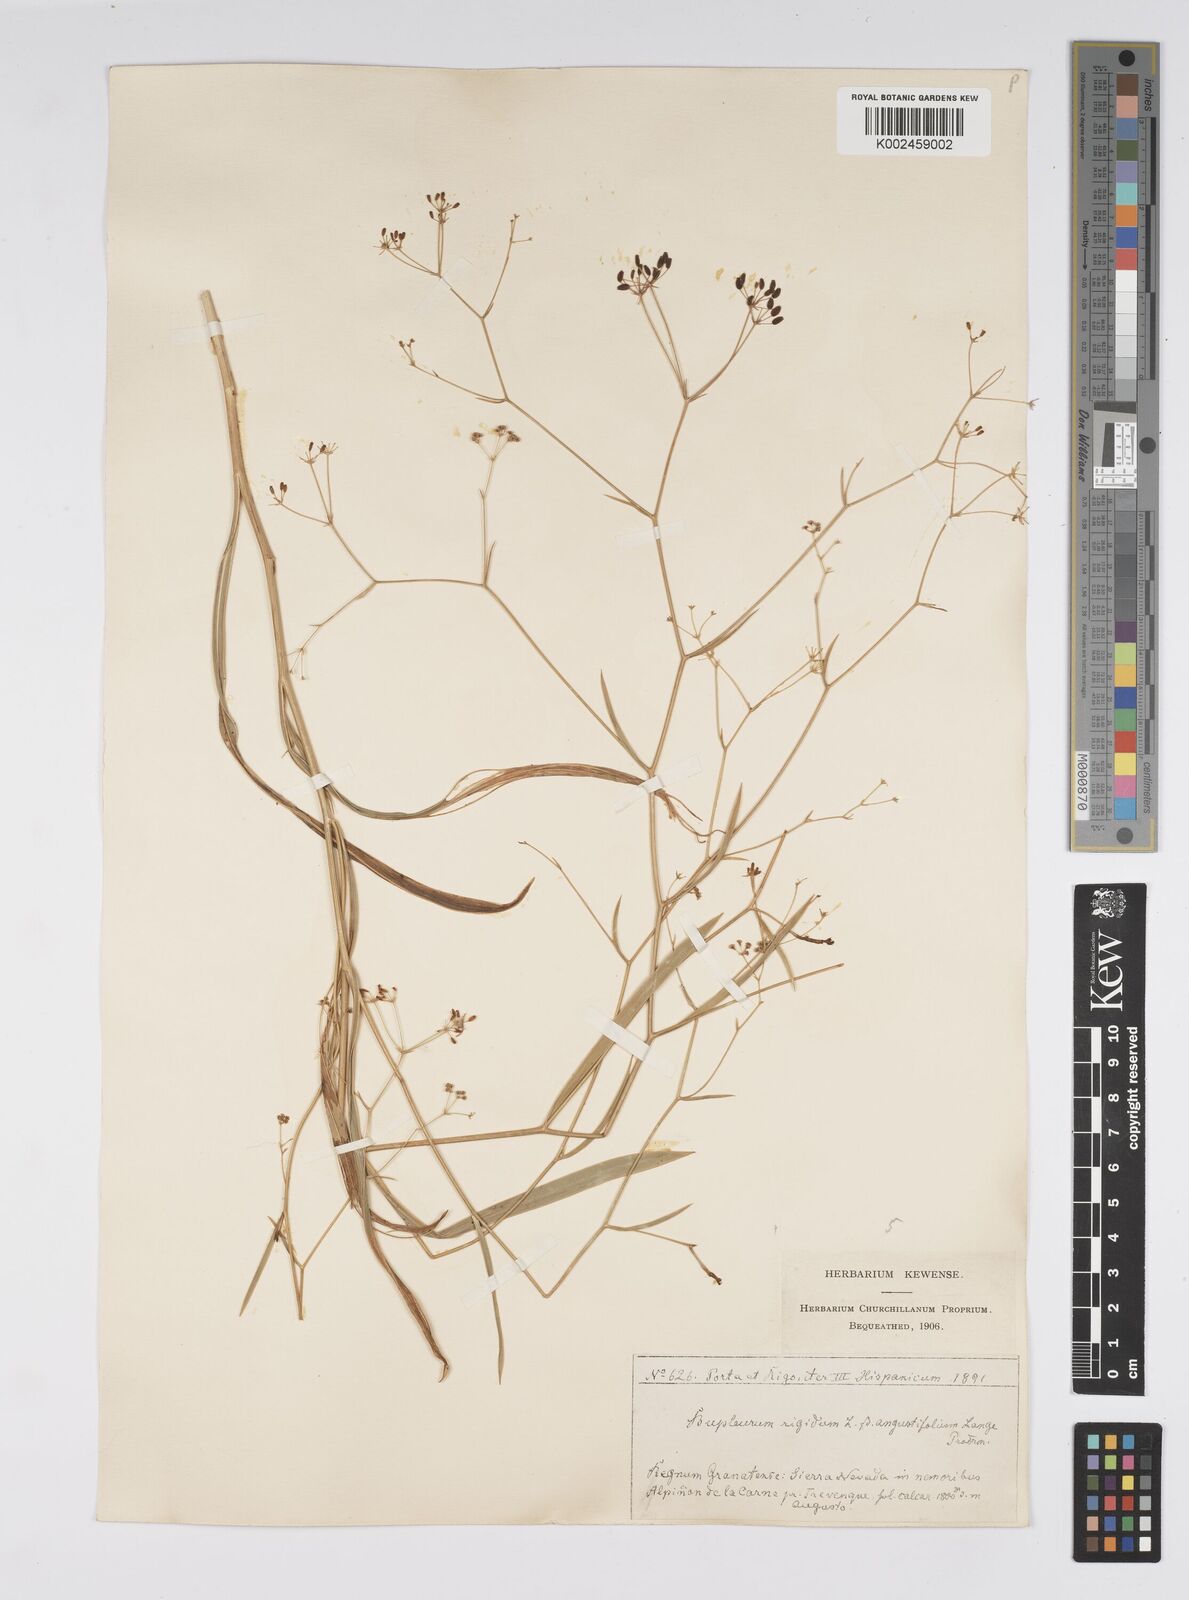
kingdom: Plantae
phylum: Tracheophyta
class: Magnoliopsida
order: Apiales
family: Apiaceae
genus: Bupleurum
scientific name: Bupleurum rigidum
